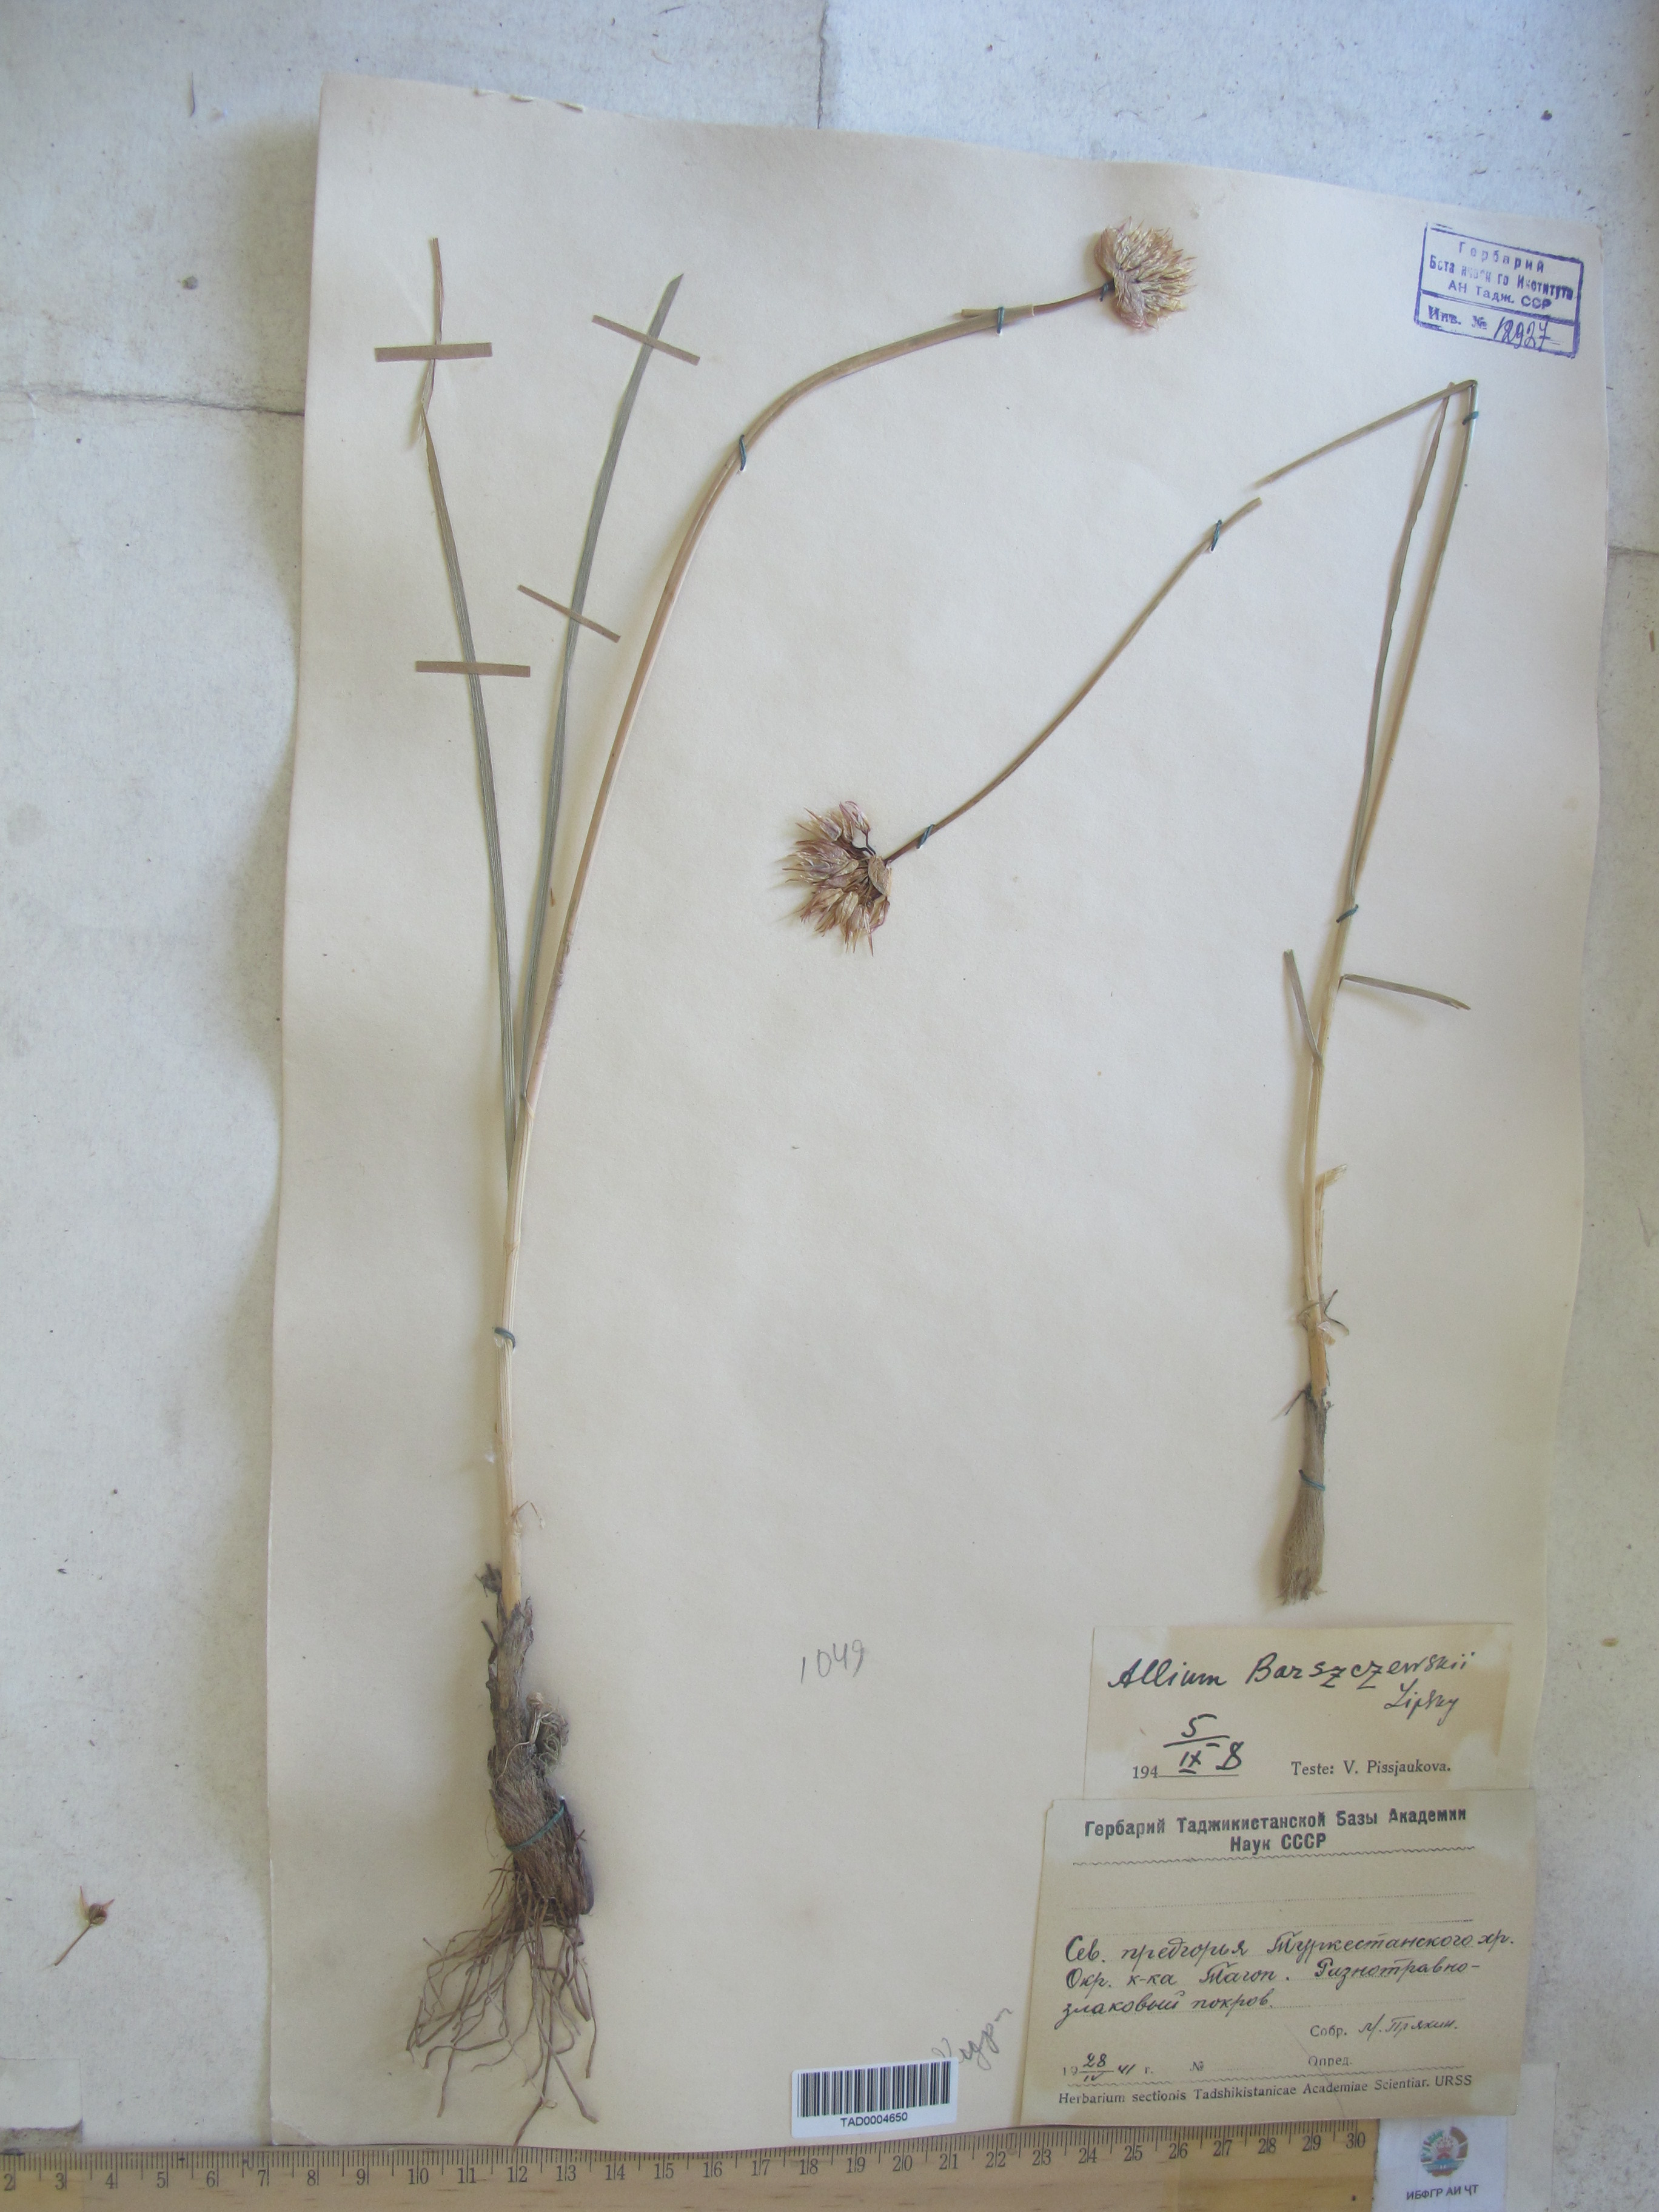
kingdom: Plantae
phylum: Tracheophyta
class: Liliopsida
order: Asparagales
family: Amaryllidaceae
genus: Allium
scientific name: Allium barsczewskii
